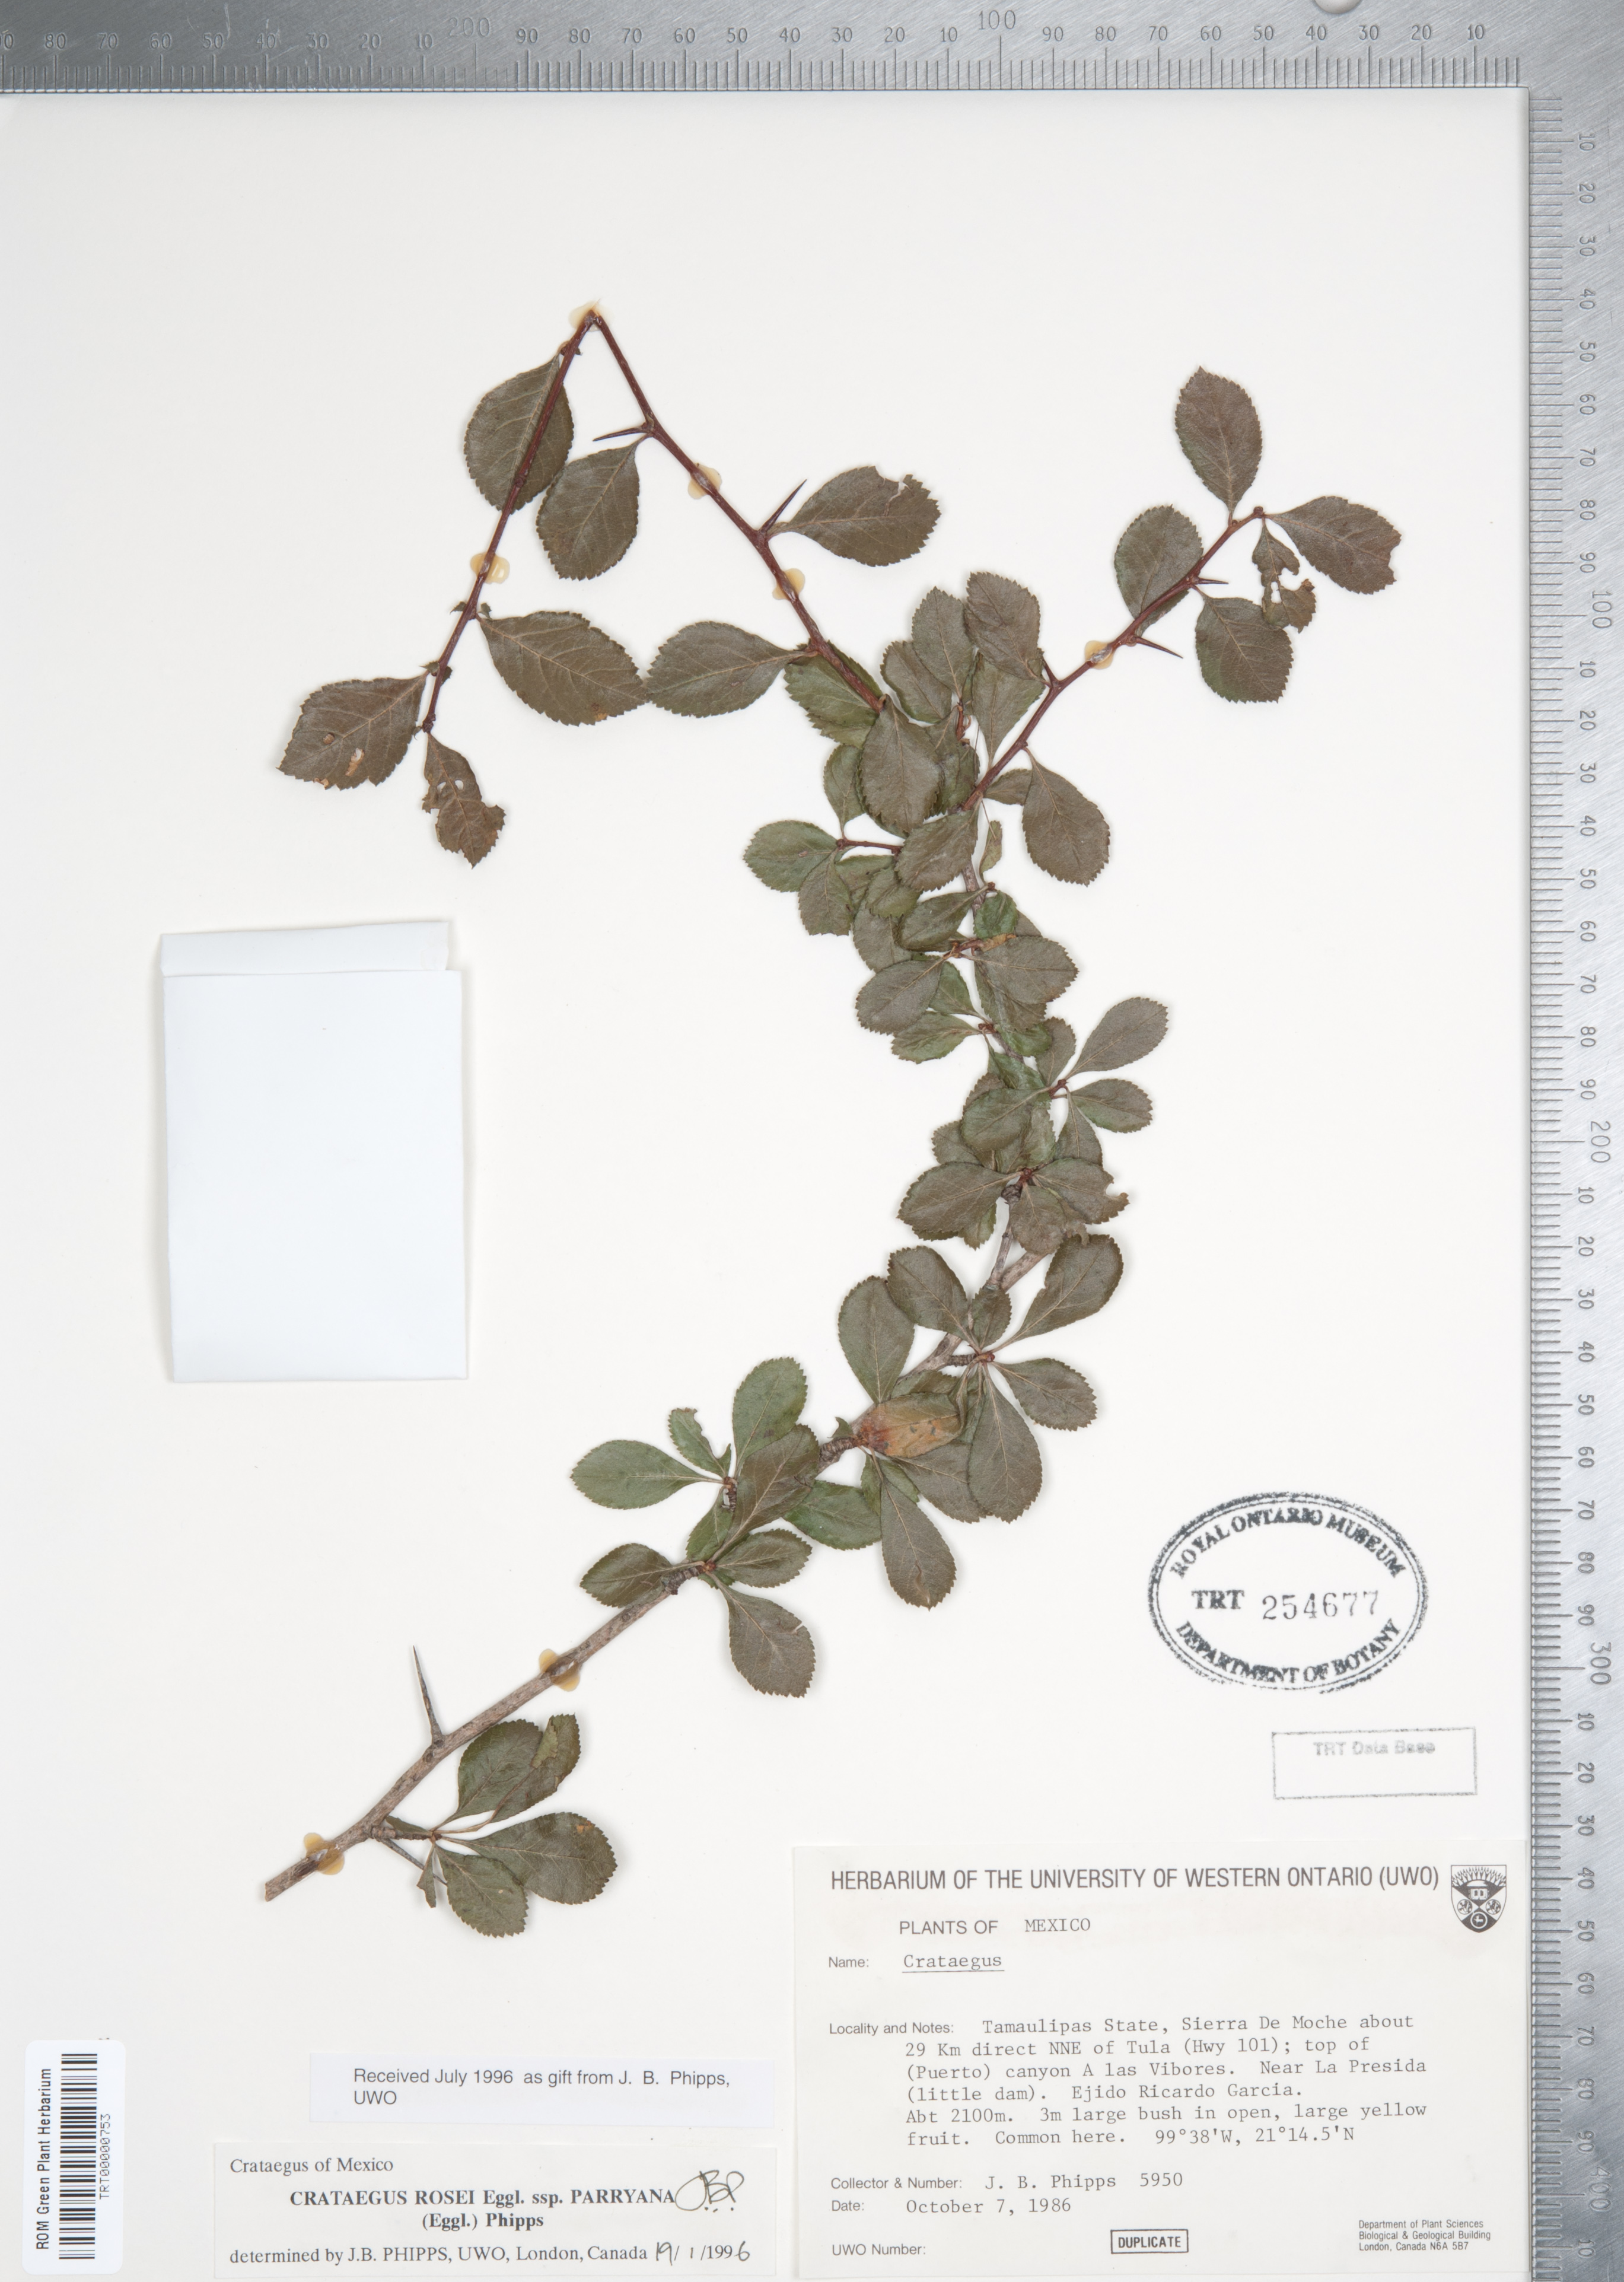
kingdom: Plantae
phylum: Tracheophyta
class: Magnoliopsida
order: Rosales
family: Rosaceae
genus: Crataegus
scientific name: Crataegus rosei
